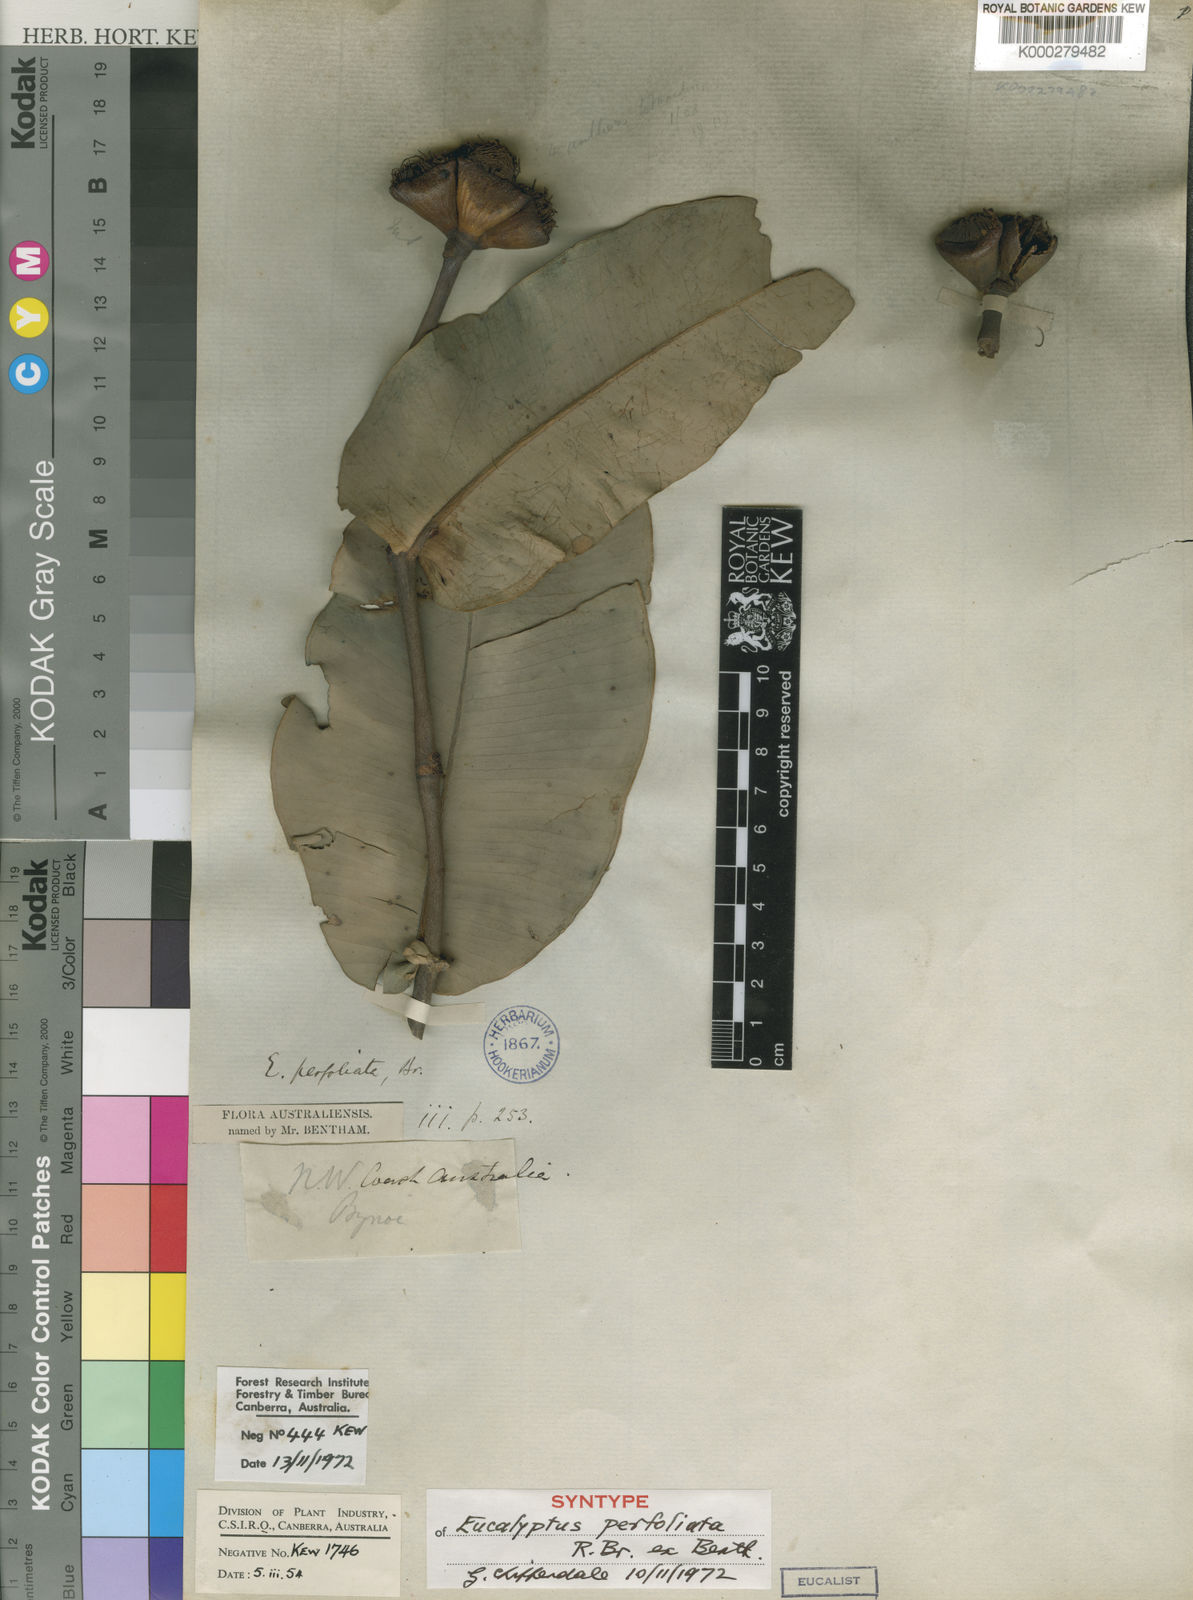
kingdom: Plantae
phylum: Tracheophyta
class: Magnoliopsida
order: Myrtales
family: Myrtaceae
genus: Corymbia
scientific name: Corymbia cadophora
